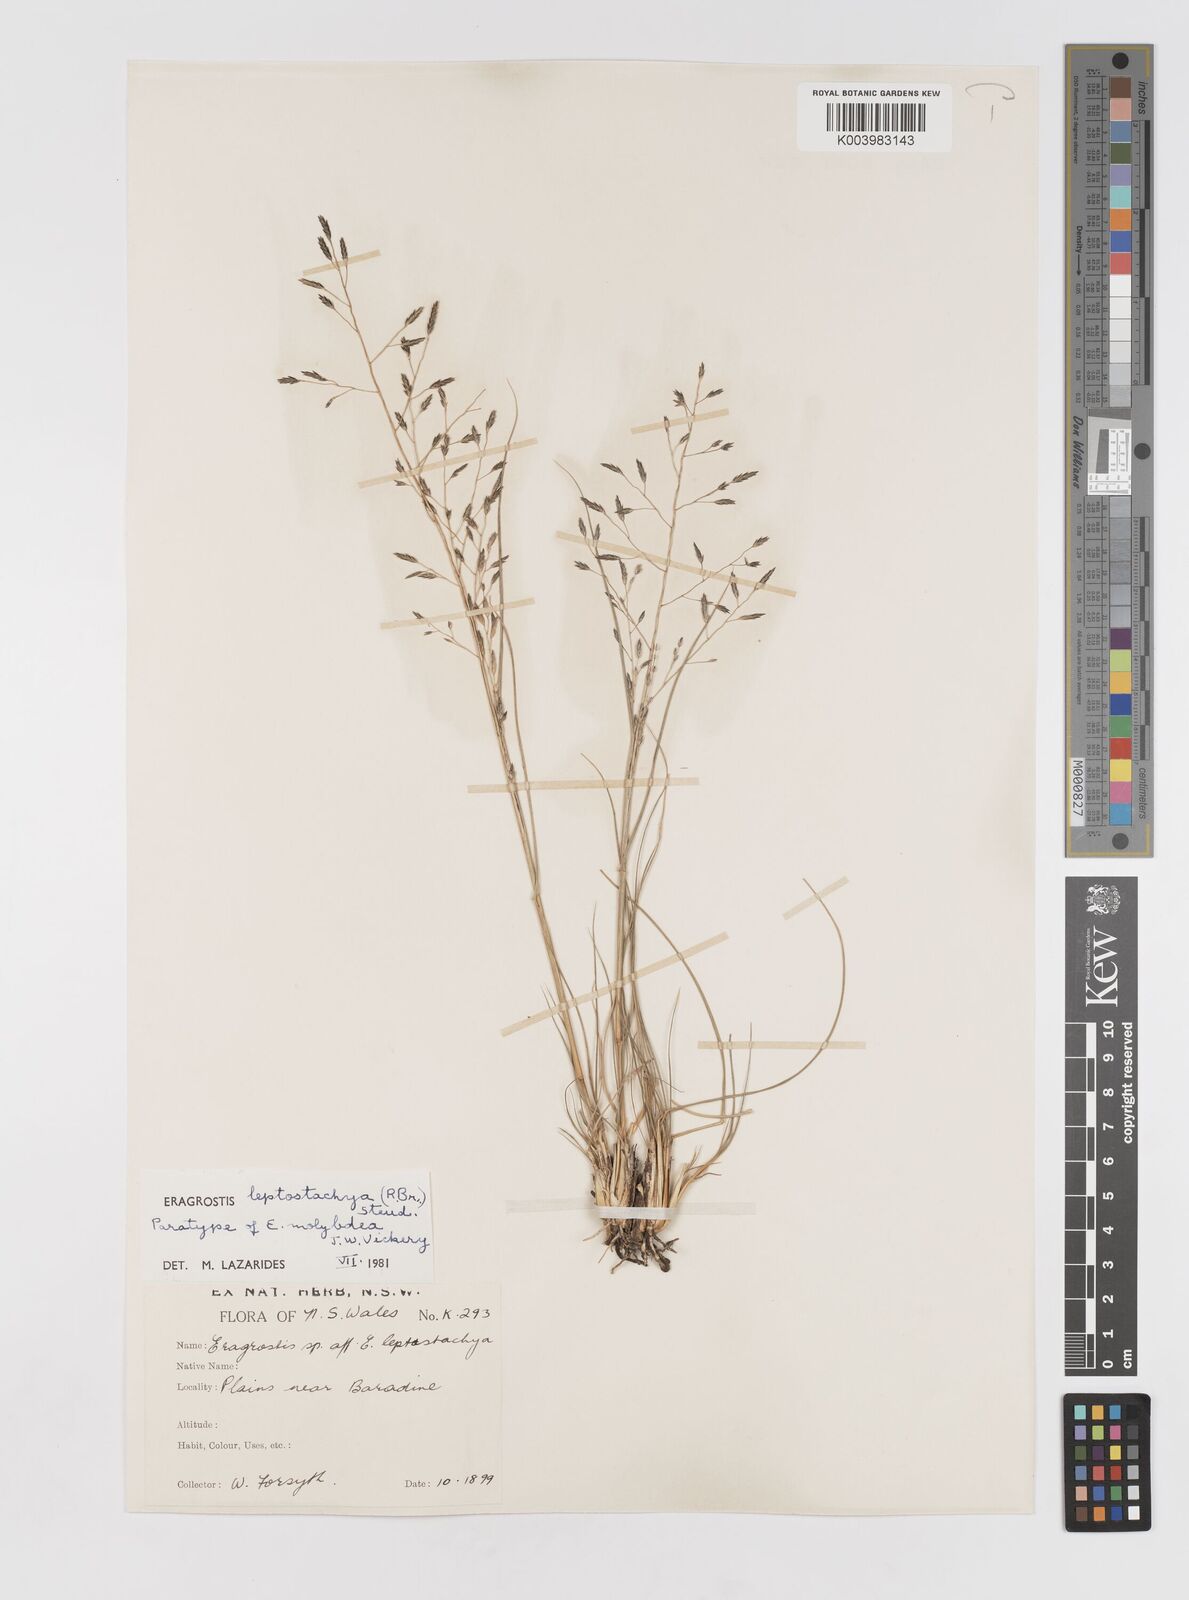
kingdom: Plantae
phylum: Tracheophyta
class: Liliopsida
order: Poales
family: Poaceae
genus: Eragrostis
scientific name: Eragrostis leptostachya
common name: Australian lovegrass
